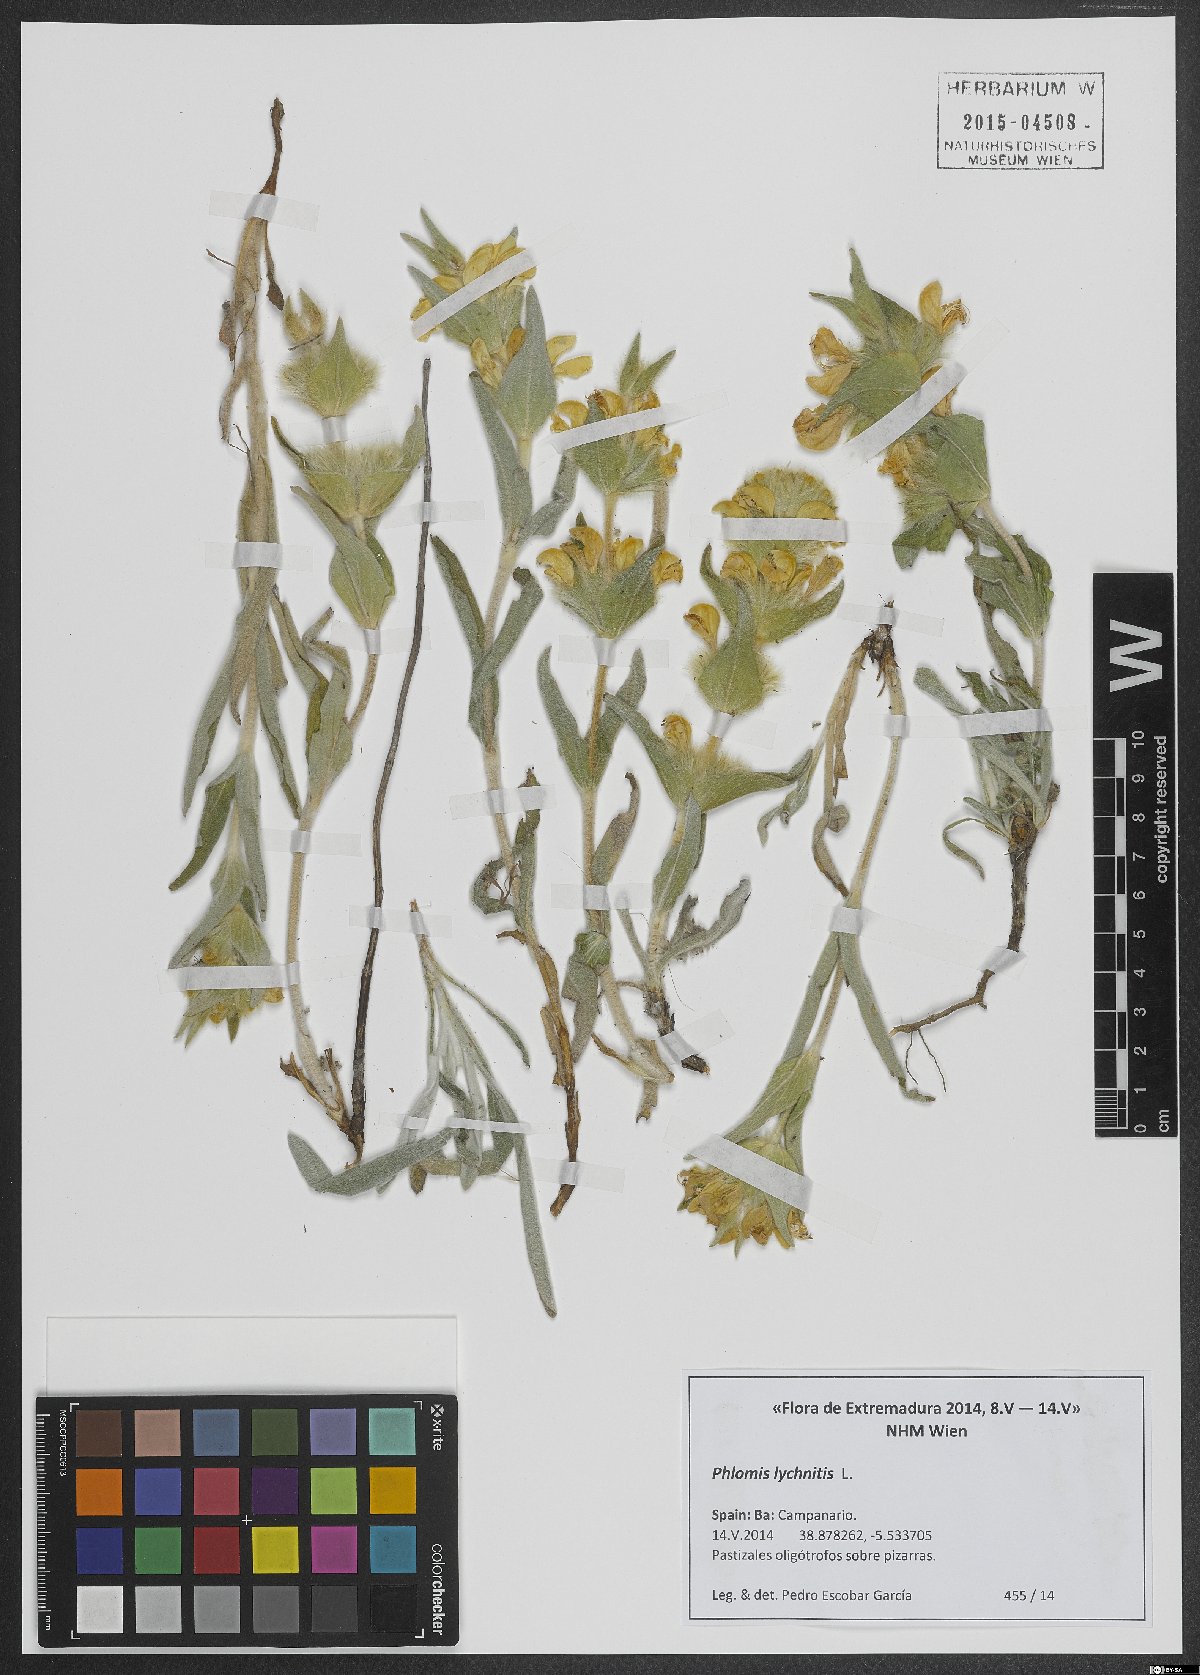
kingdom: Plantae
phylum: Tracheophyta
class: Magnoliopsida
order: Lamiales
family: Lamiaceae
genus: Phlomis
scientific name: Phlomis lychnitis
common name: Lampwickplant
